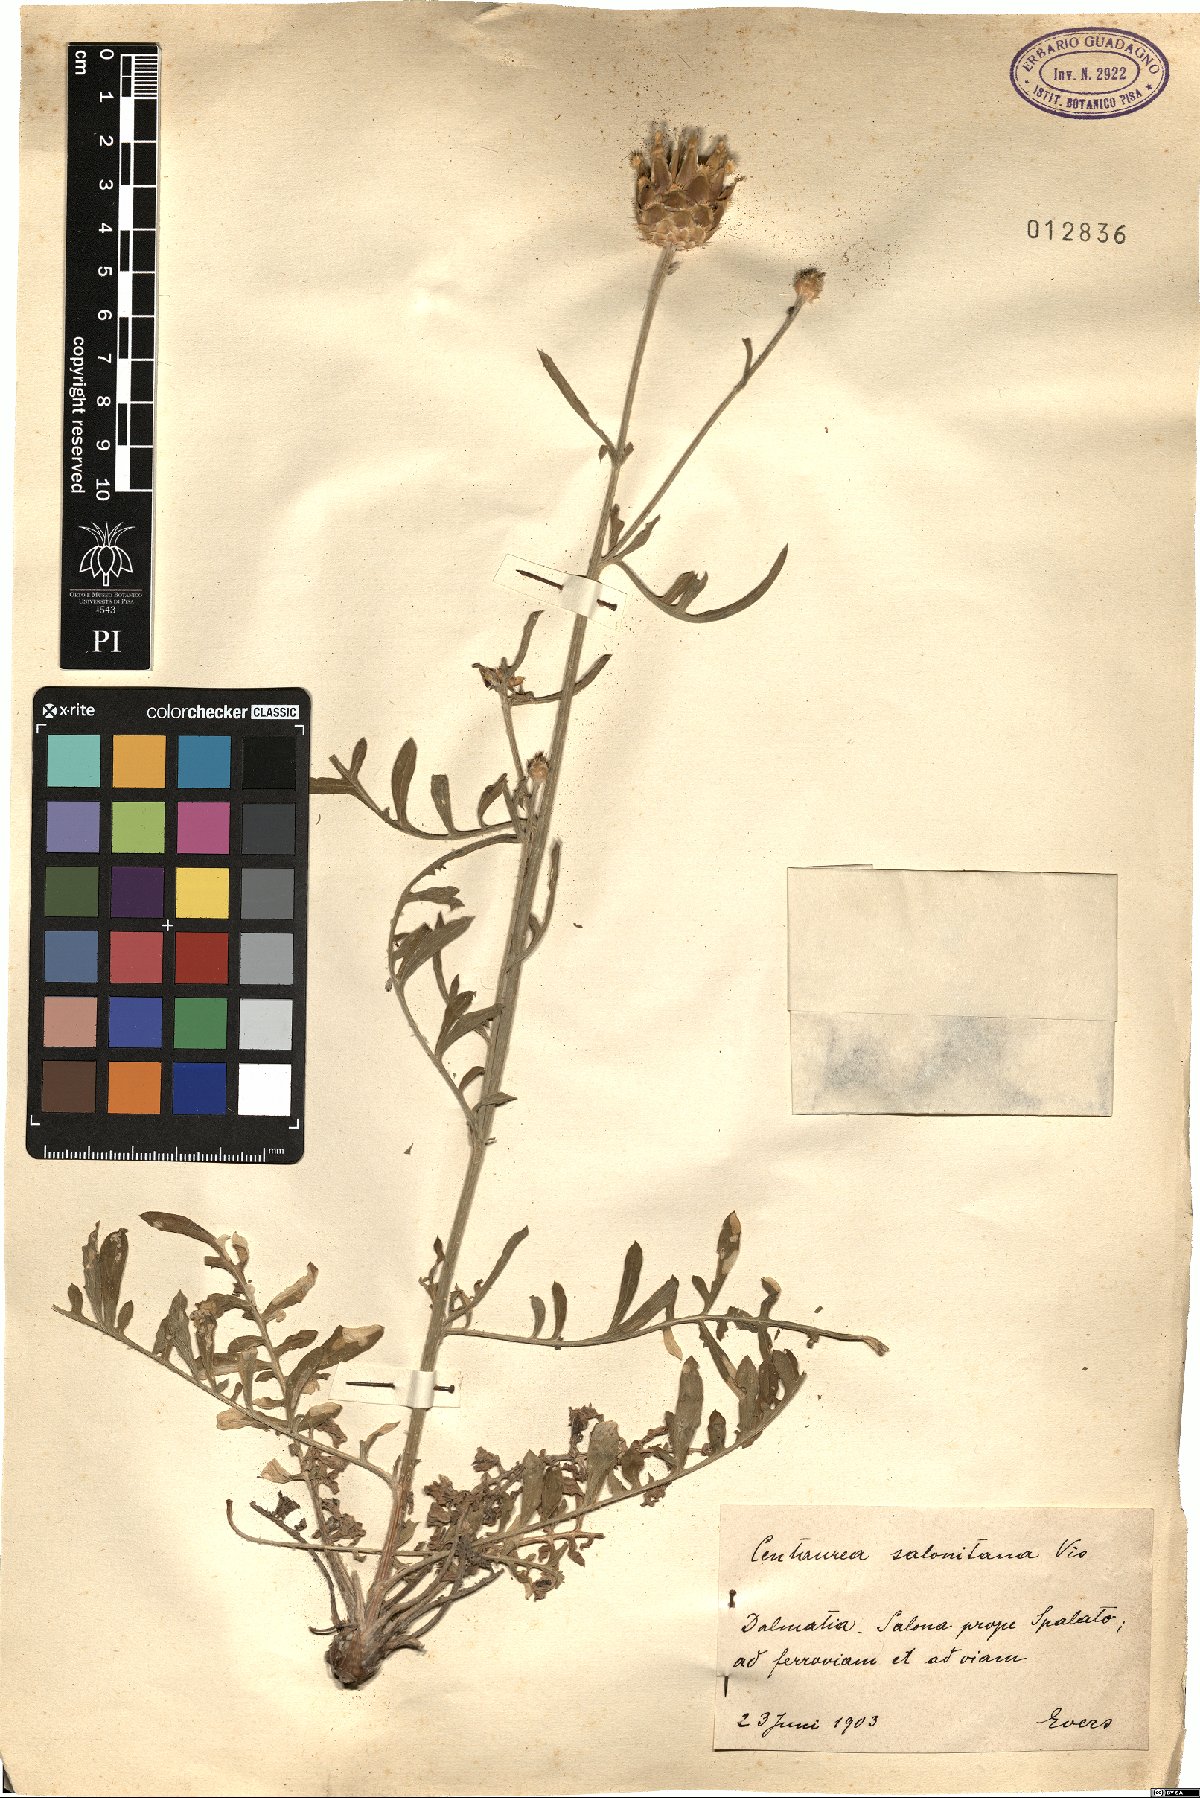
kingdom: Plantae
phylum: Tracheophyta
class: Magnoliopsida
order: Asterales
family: Asteraceae
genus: Centaurea
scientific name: Centaurea salonitana
